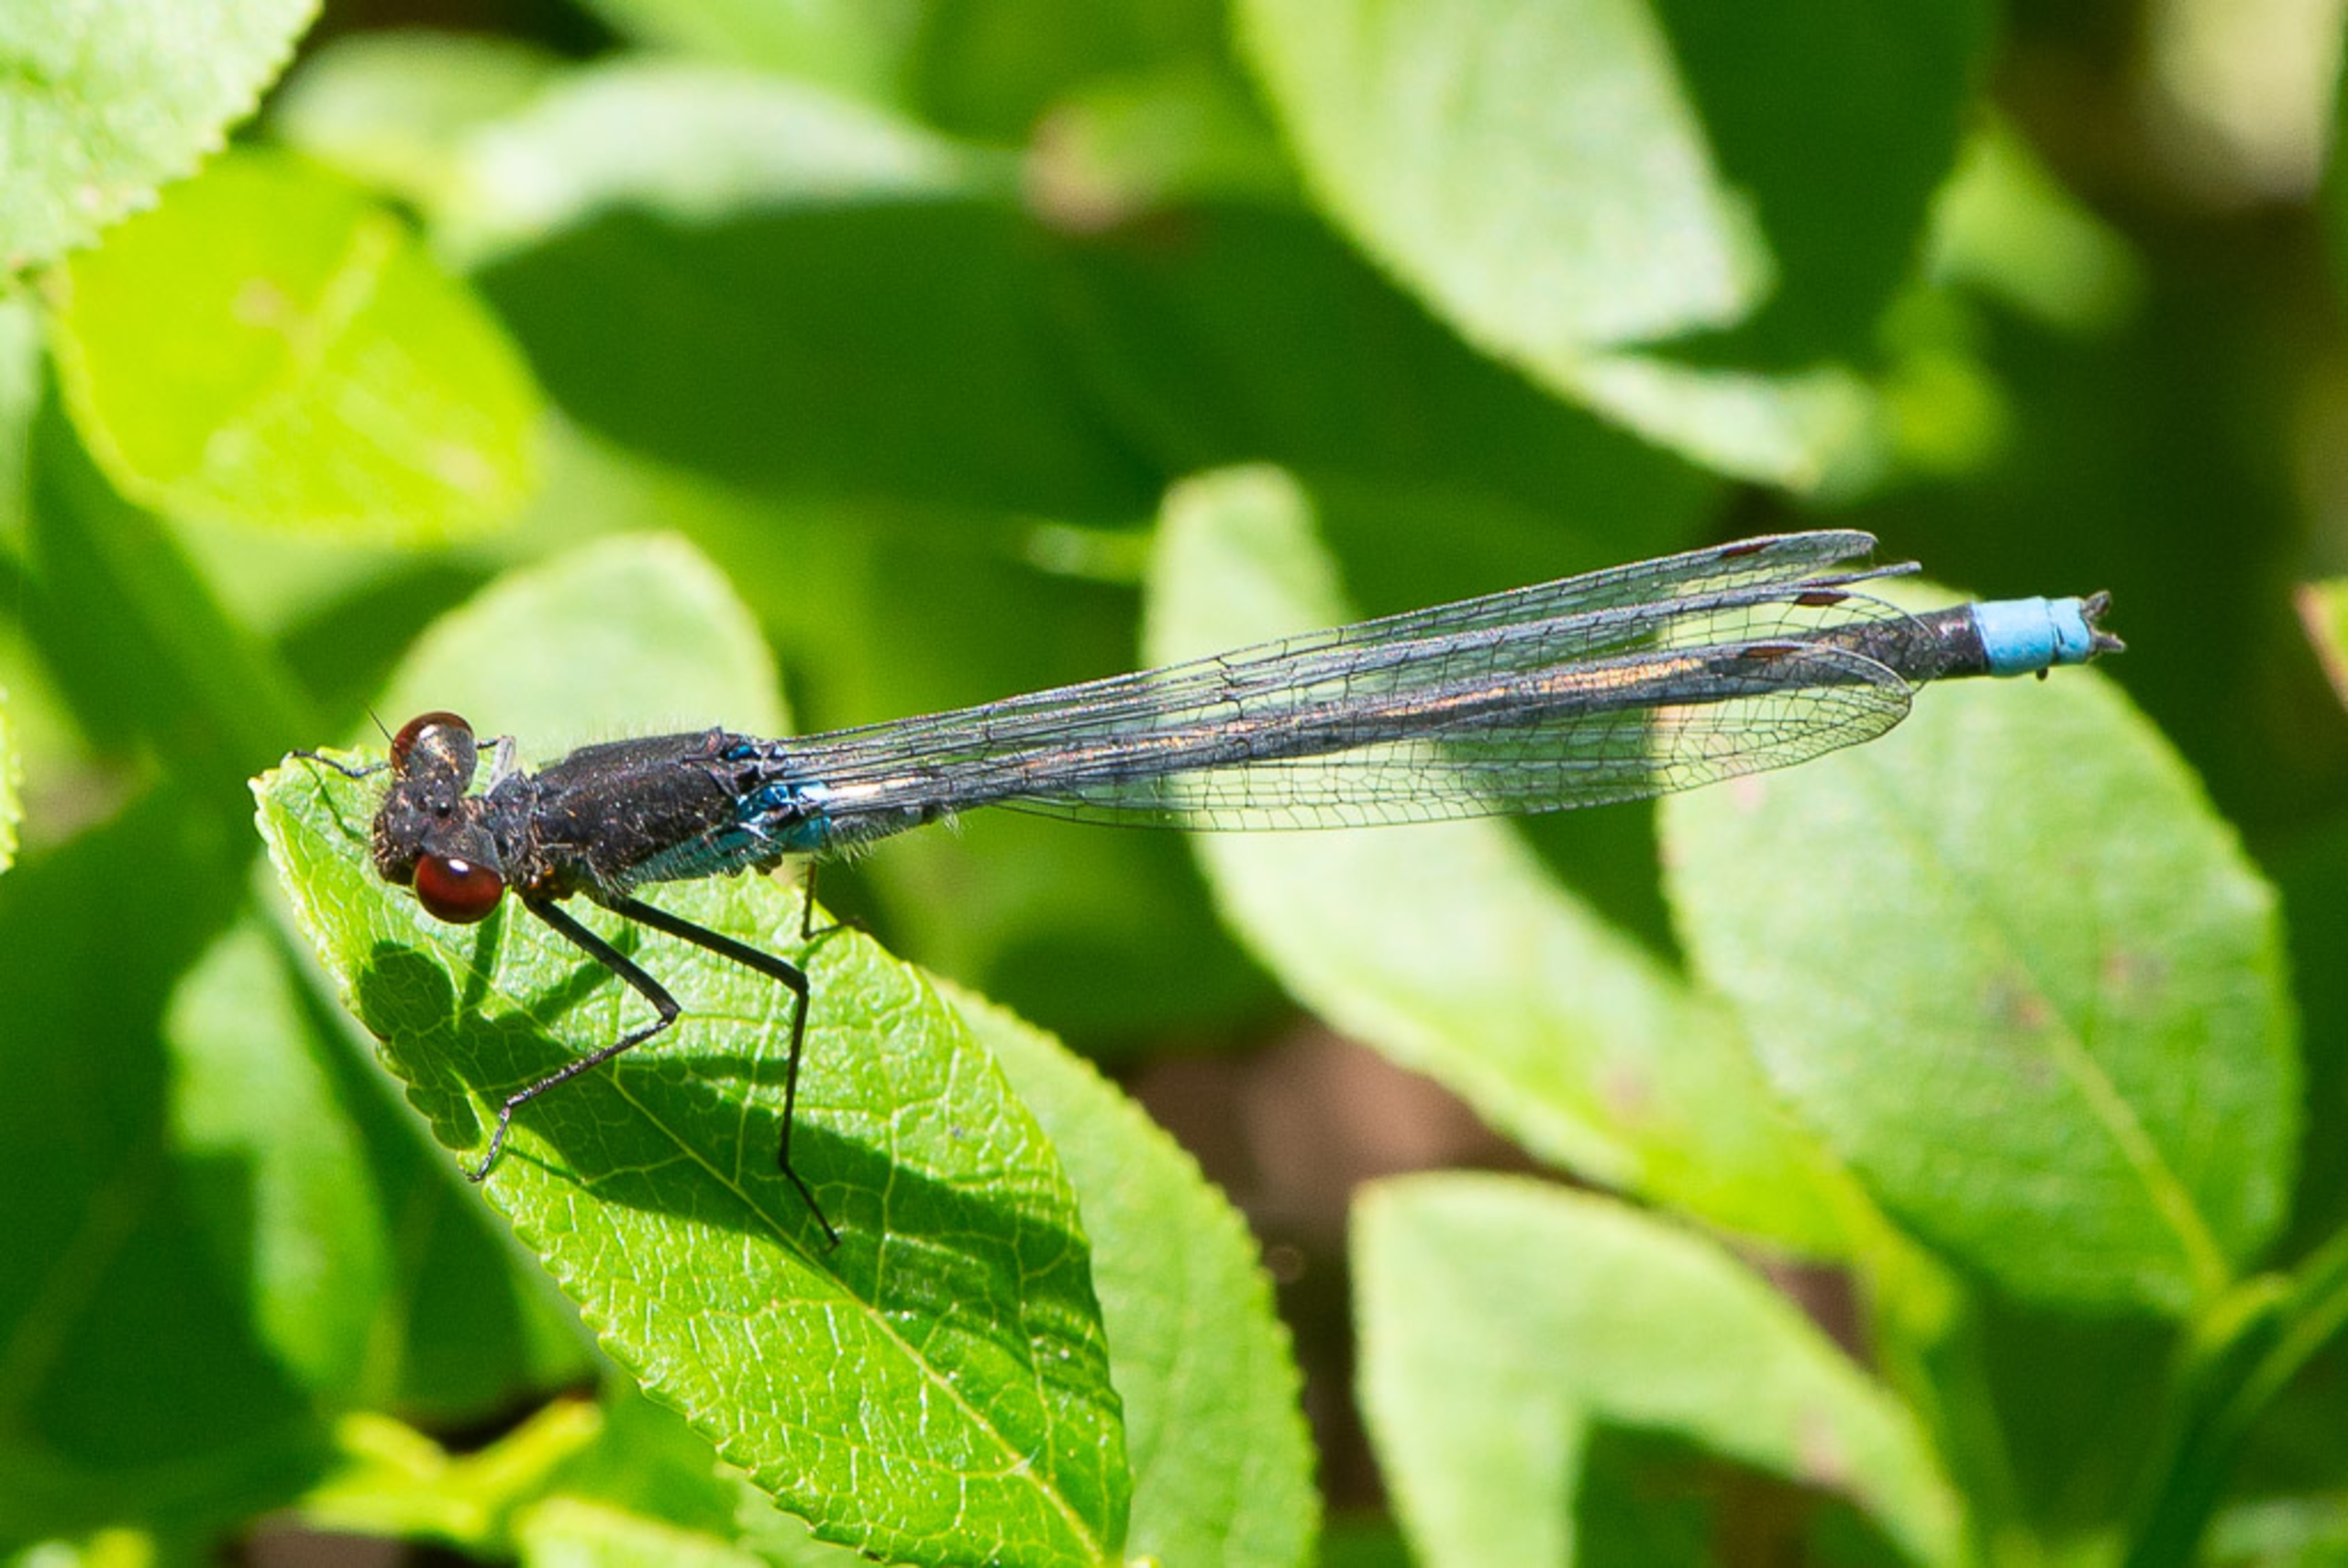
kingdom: Animalia
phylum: Arthropoda
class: Insecta
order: Odonata
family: Coenagrionidae
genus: Erythromma
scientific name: Erythromma najas
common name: Rødøjet vandnymfe
